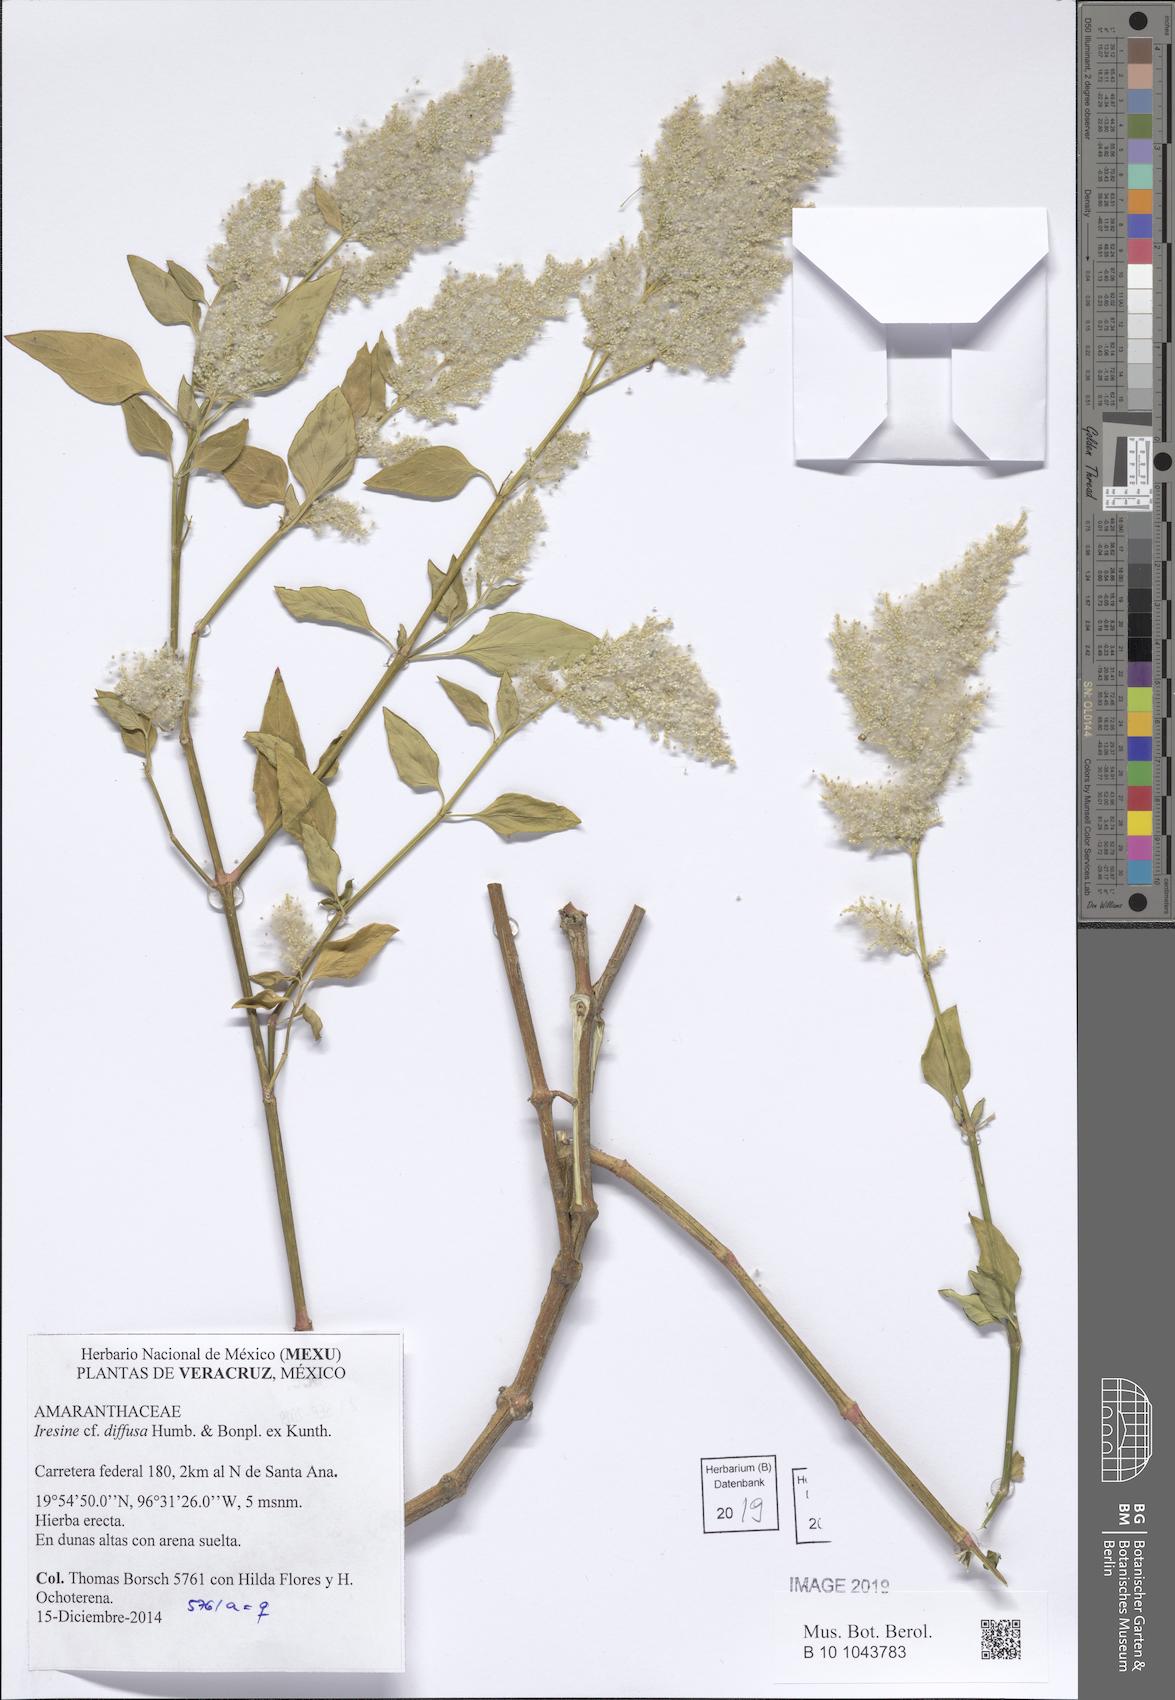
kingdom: Plantae
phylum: Tracheophyta
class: Magnoliopsida
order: Caryophyllales
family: Amaranthaceae
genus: Iresine
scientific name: Iresine diffusa
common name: Juba's-bush
